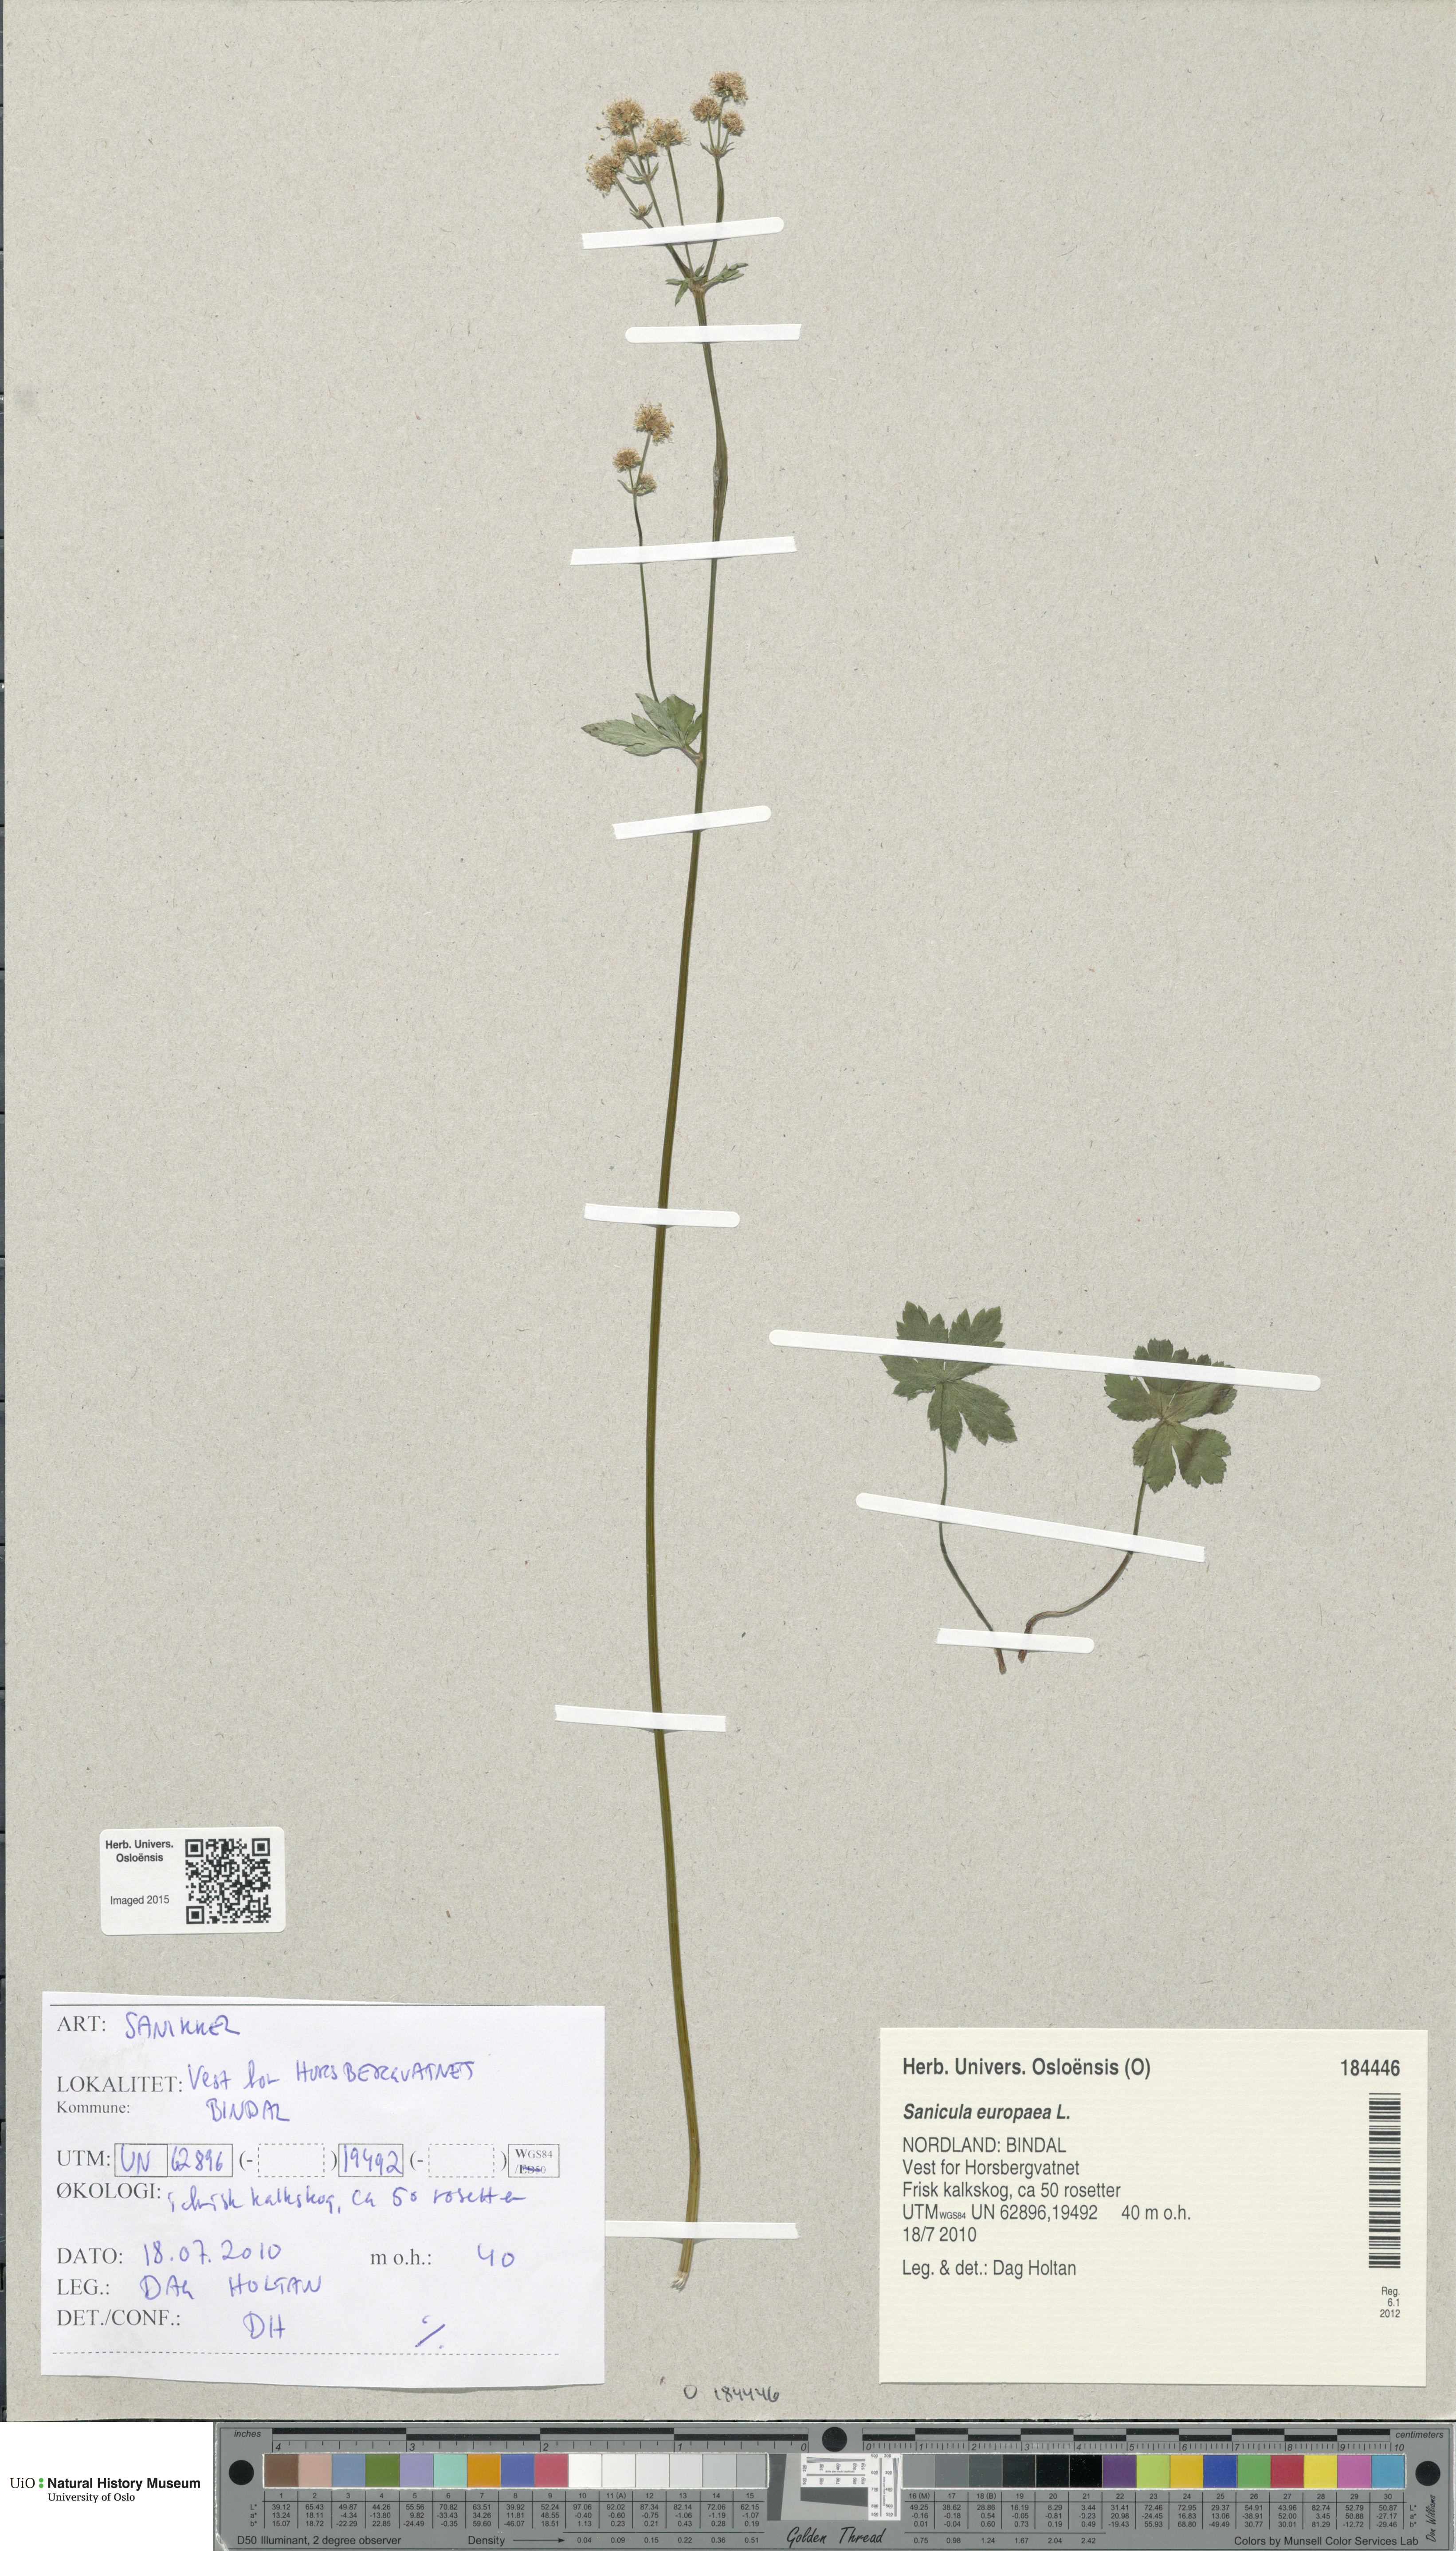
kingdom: Plantae
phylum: Tracheophyta
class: Magnoliopsida
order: Apiales
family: Apiaceae
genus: Sanicula
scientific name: Sanicula europaea
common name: Sanicle
